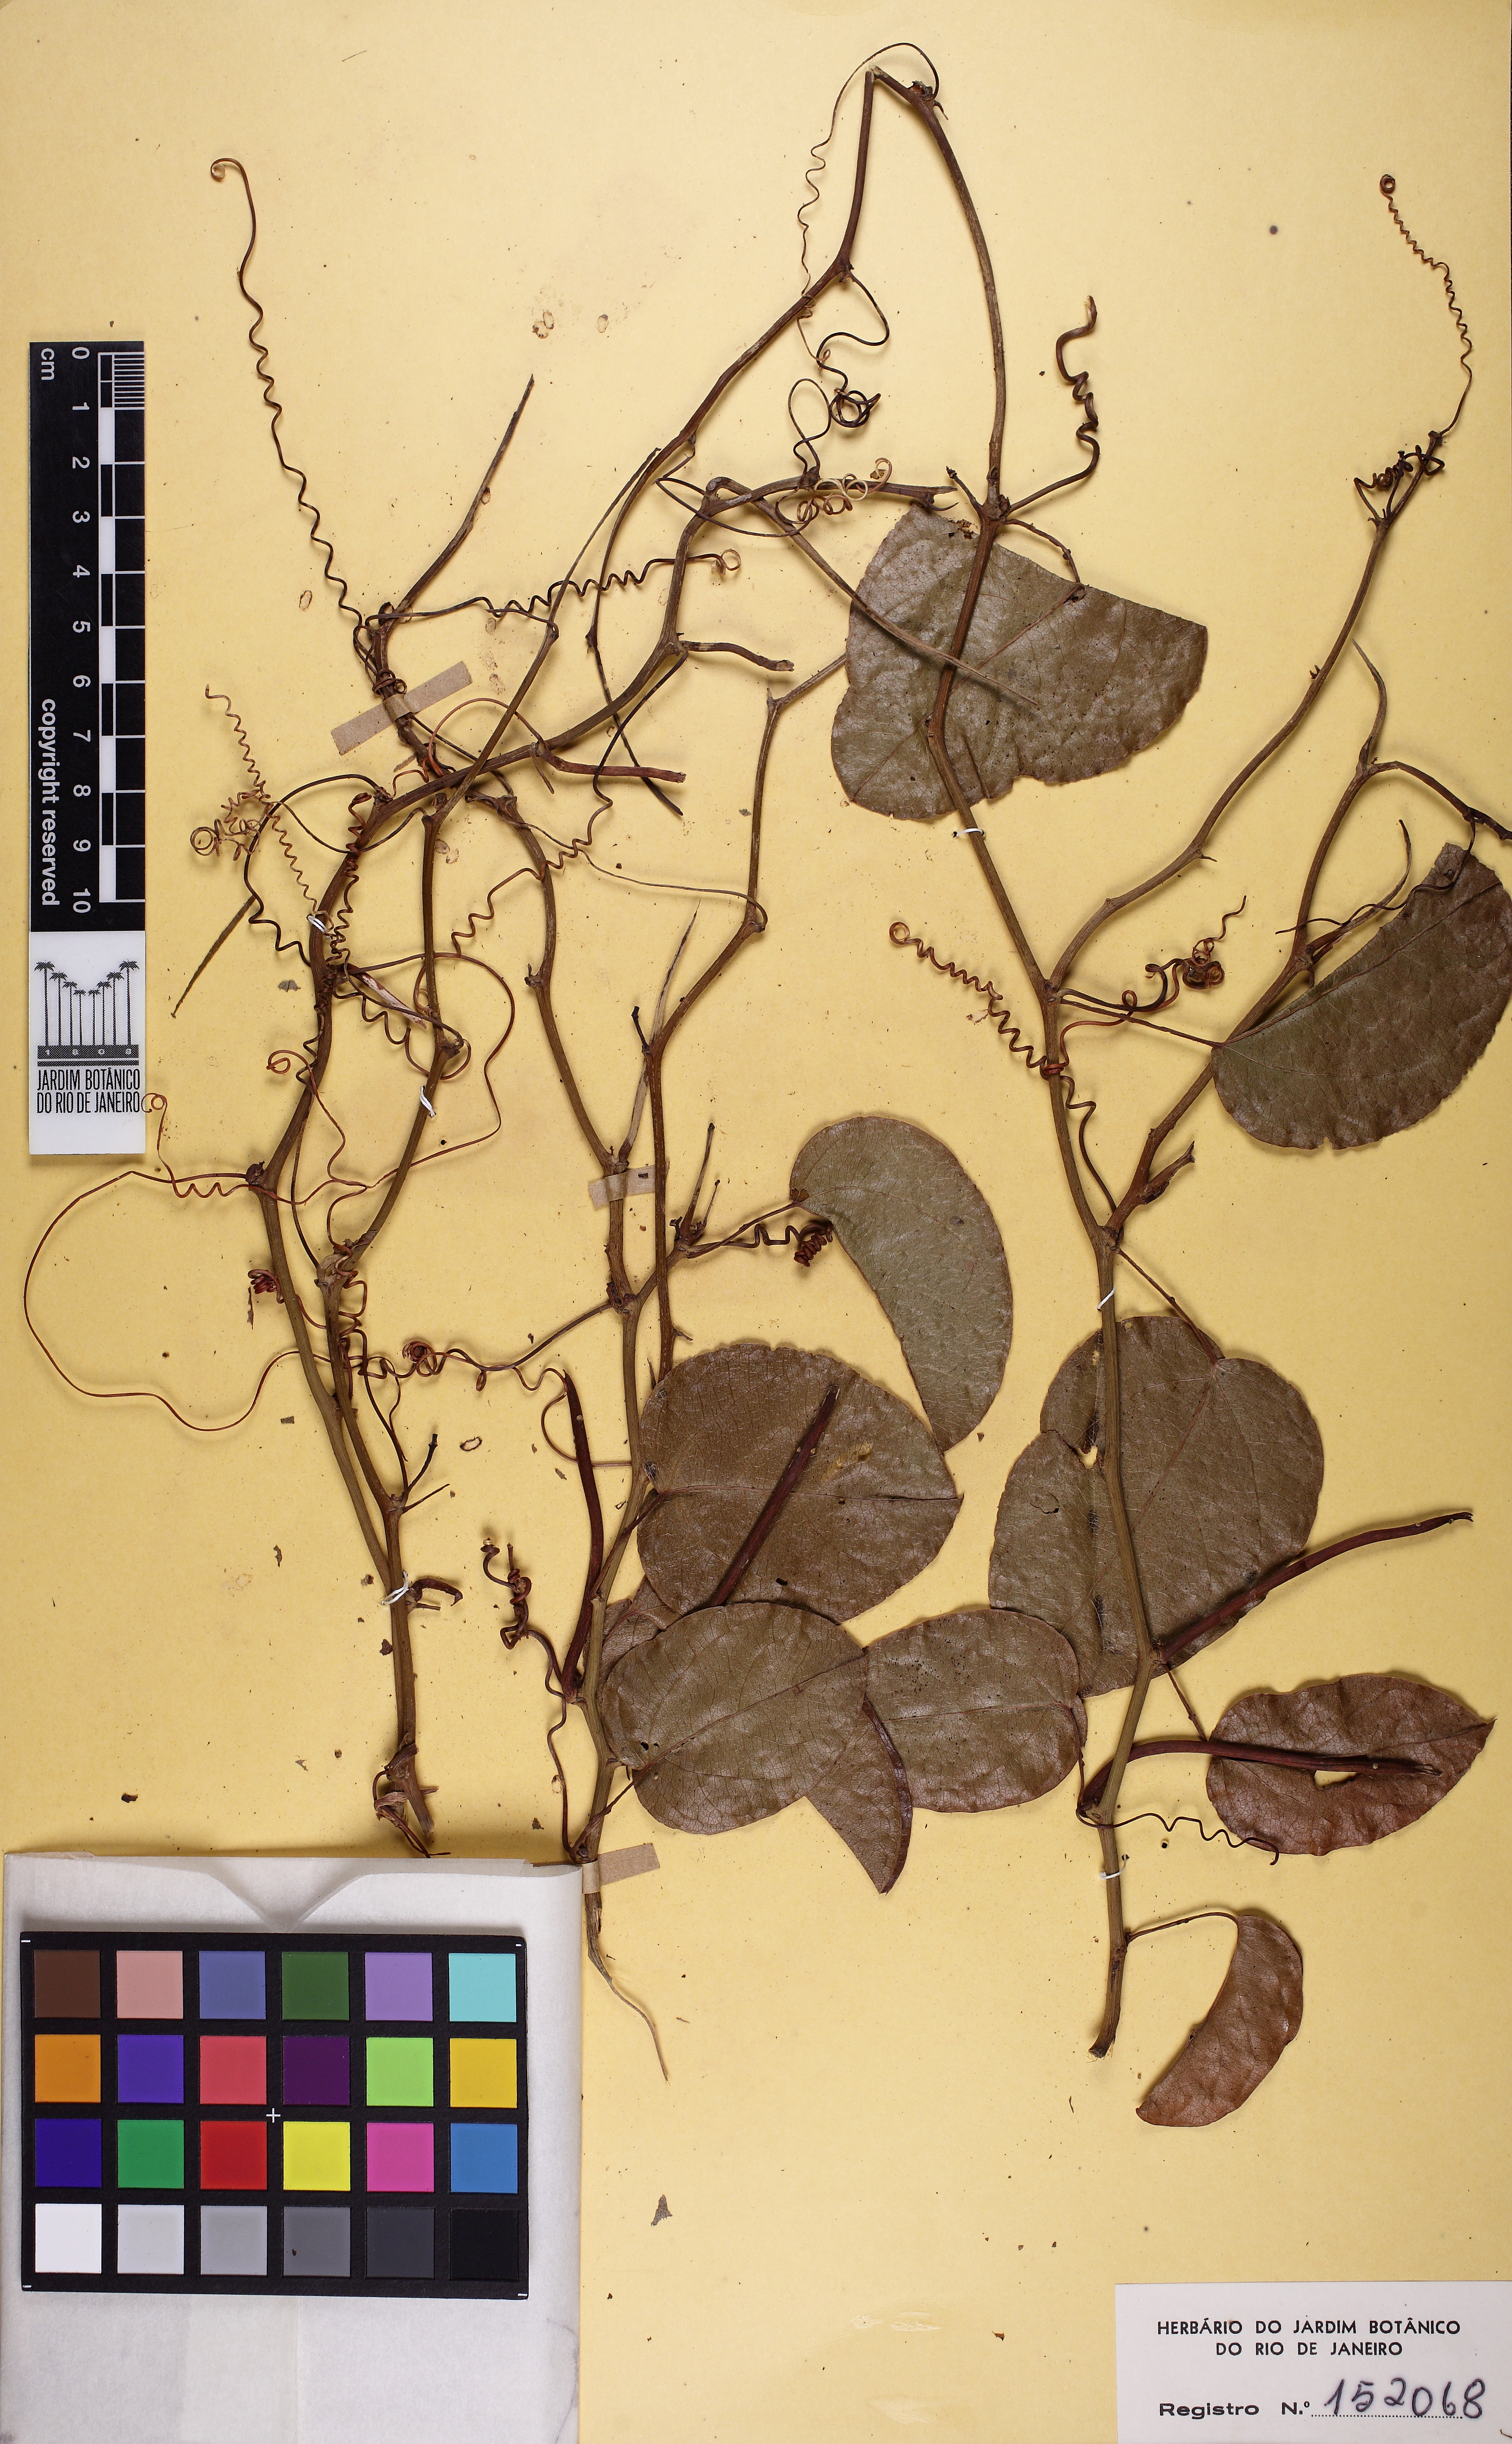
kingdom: Plantae
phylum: Tracheophyta
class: Magnoliopsida
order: Malpighiales
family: Passifloraceae
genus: Passiflora
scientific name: Passiflora silvestris
